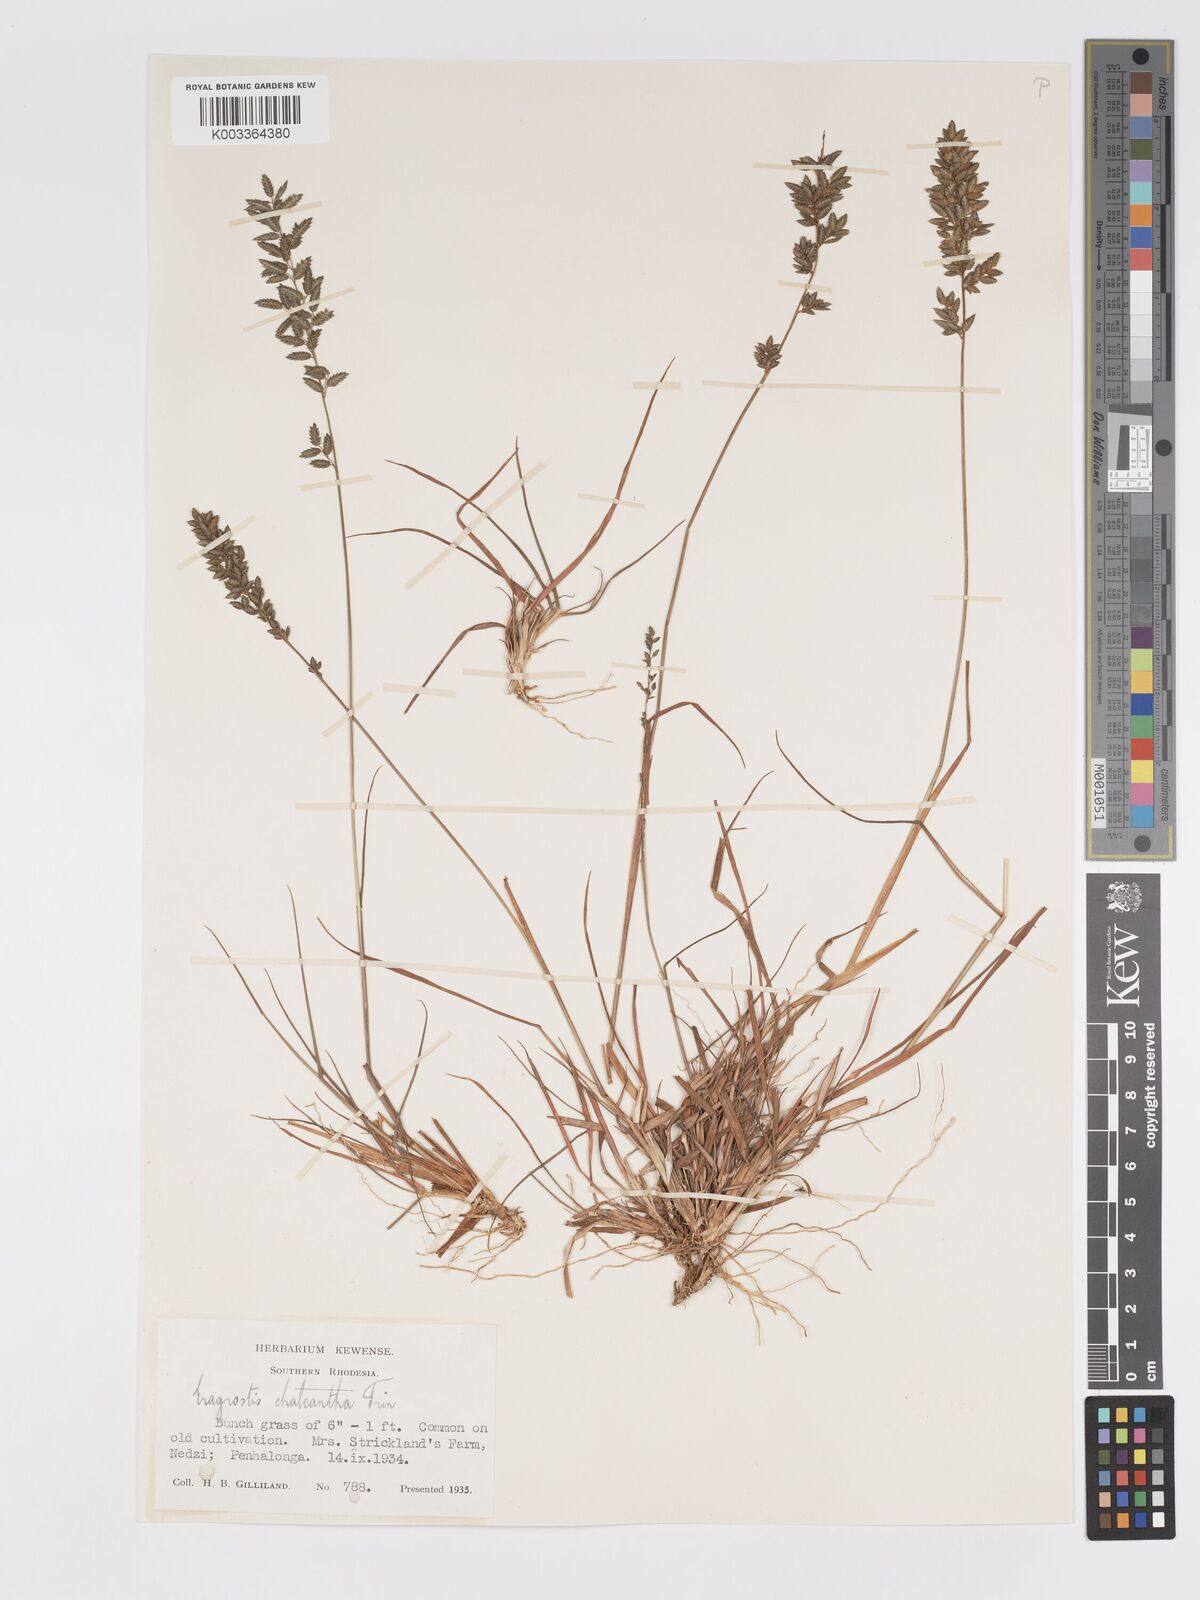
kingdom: Plantae
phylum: Tracheophyta
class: Liliopsida
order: Poales
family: Poaceae
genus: Eragrostis
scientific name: Eragrostis racemosa
